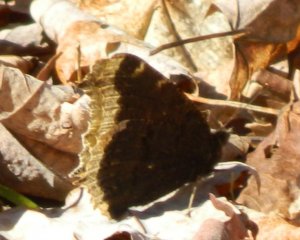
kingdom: Animalia
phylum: Arthropoda
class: Insecta
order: Lepidoptera
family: Nymphalidae
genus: Nymphalis
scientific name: Nymphalis antiopa
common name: Mourning Cloak
